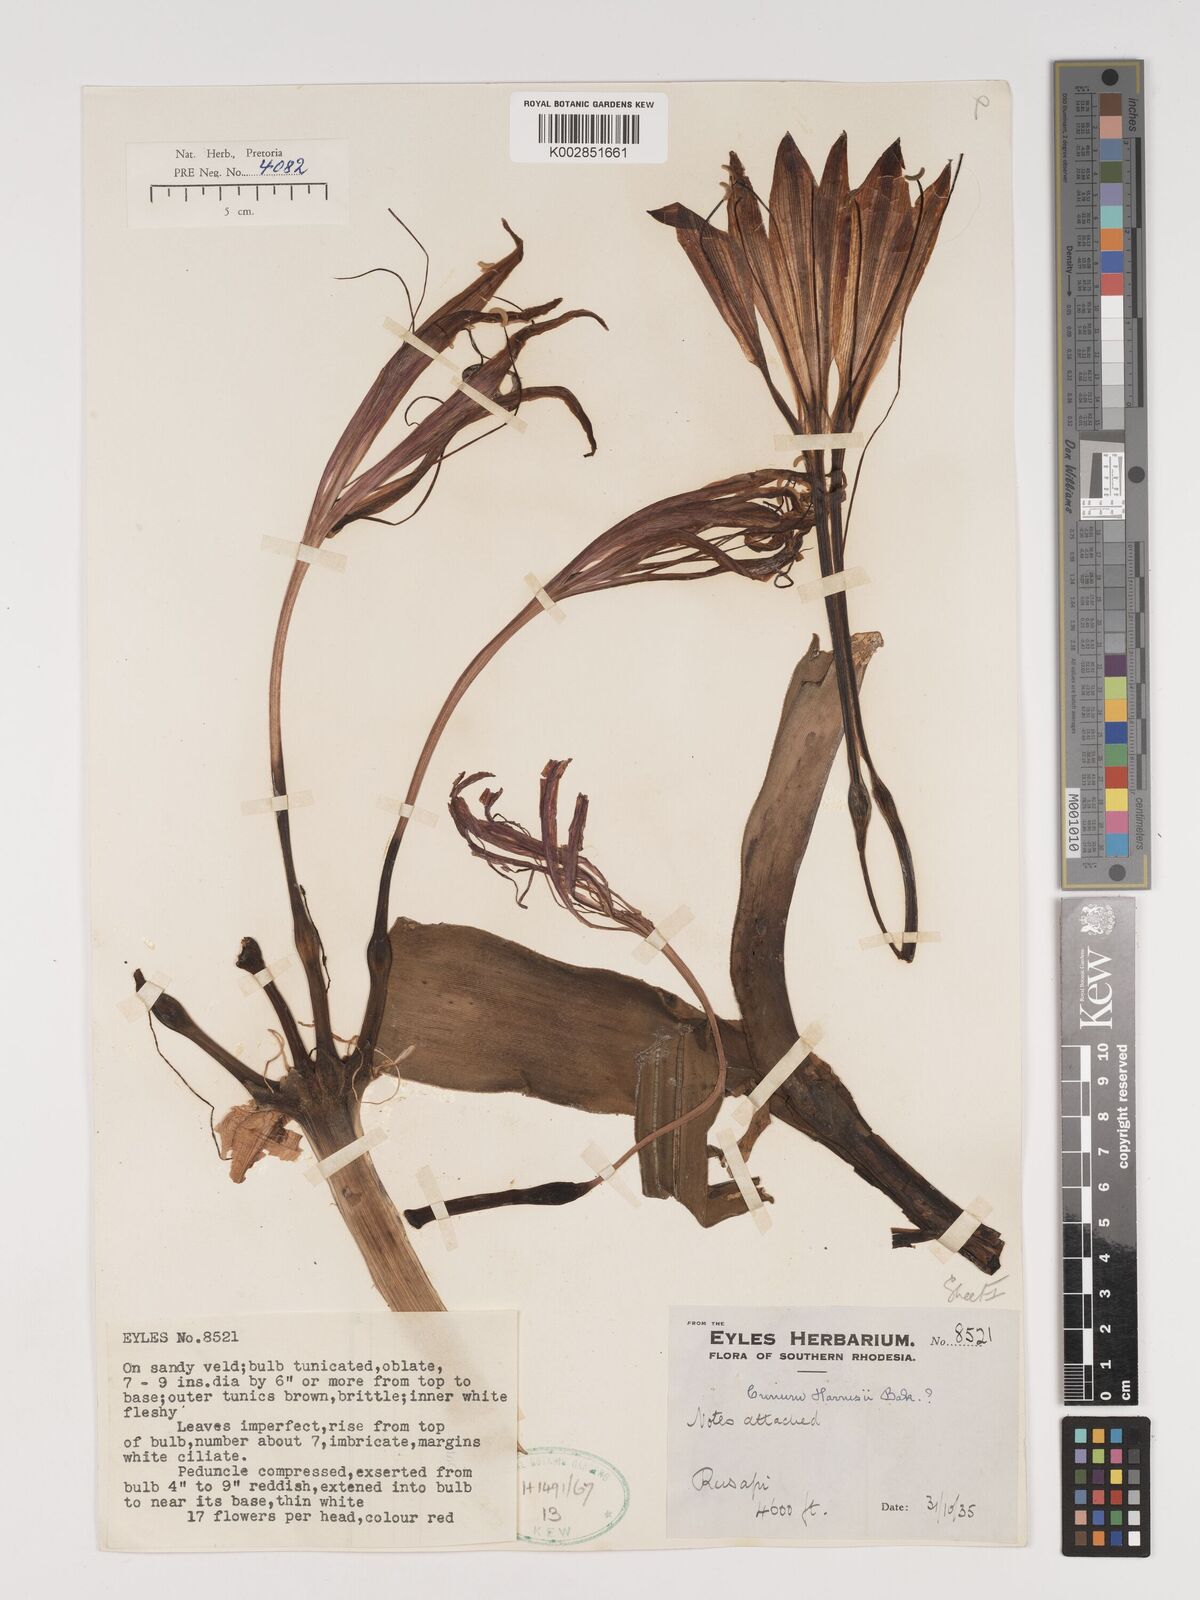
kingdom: Plantae
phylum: Tracheophyta
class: Liliopsida
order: Asparagales
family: Amaryllidaceae
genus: Crinum
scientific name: Crinum graminicola
